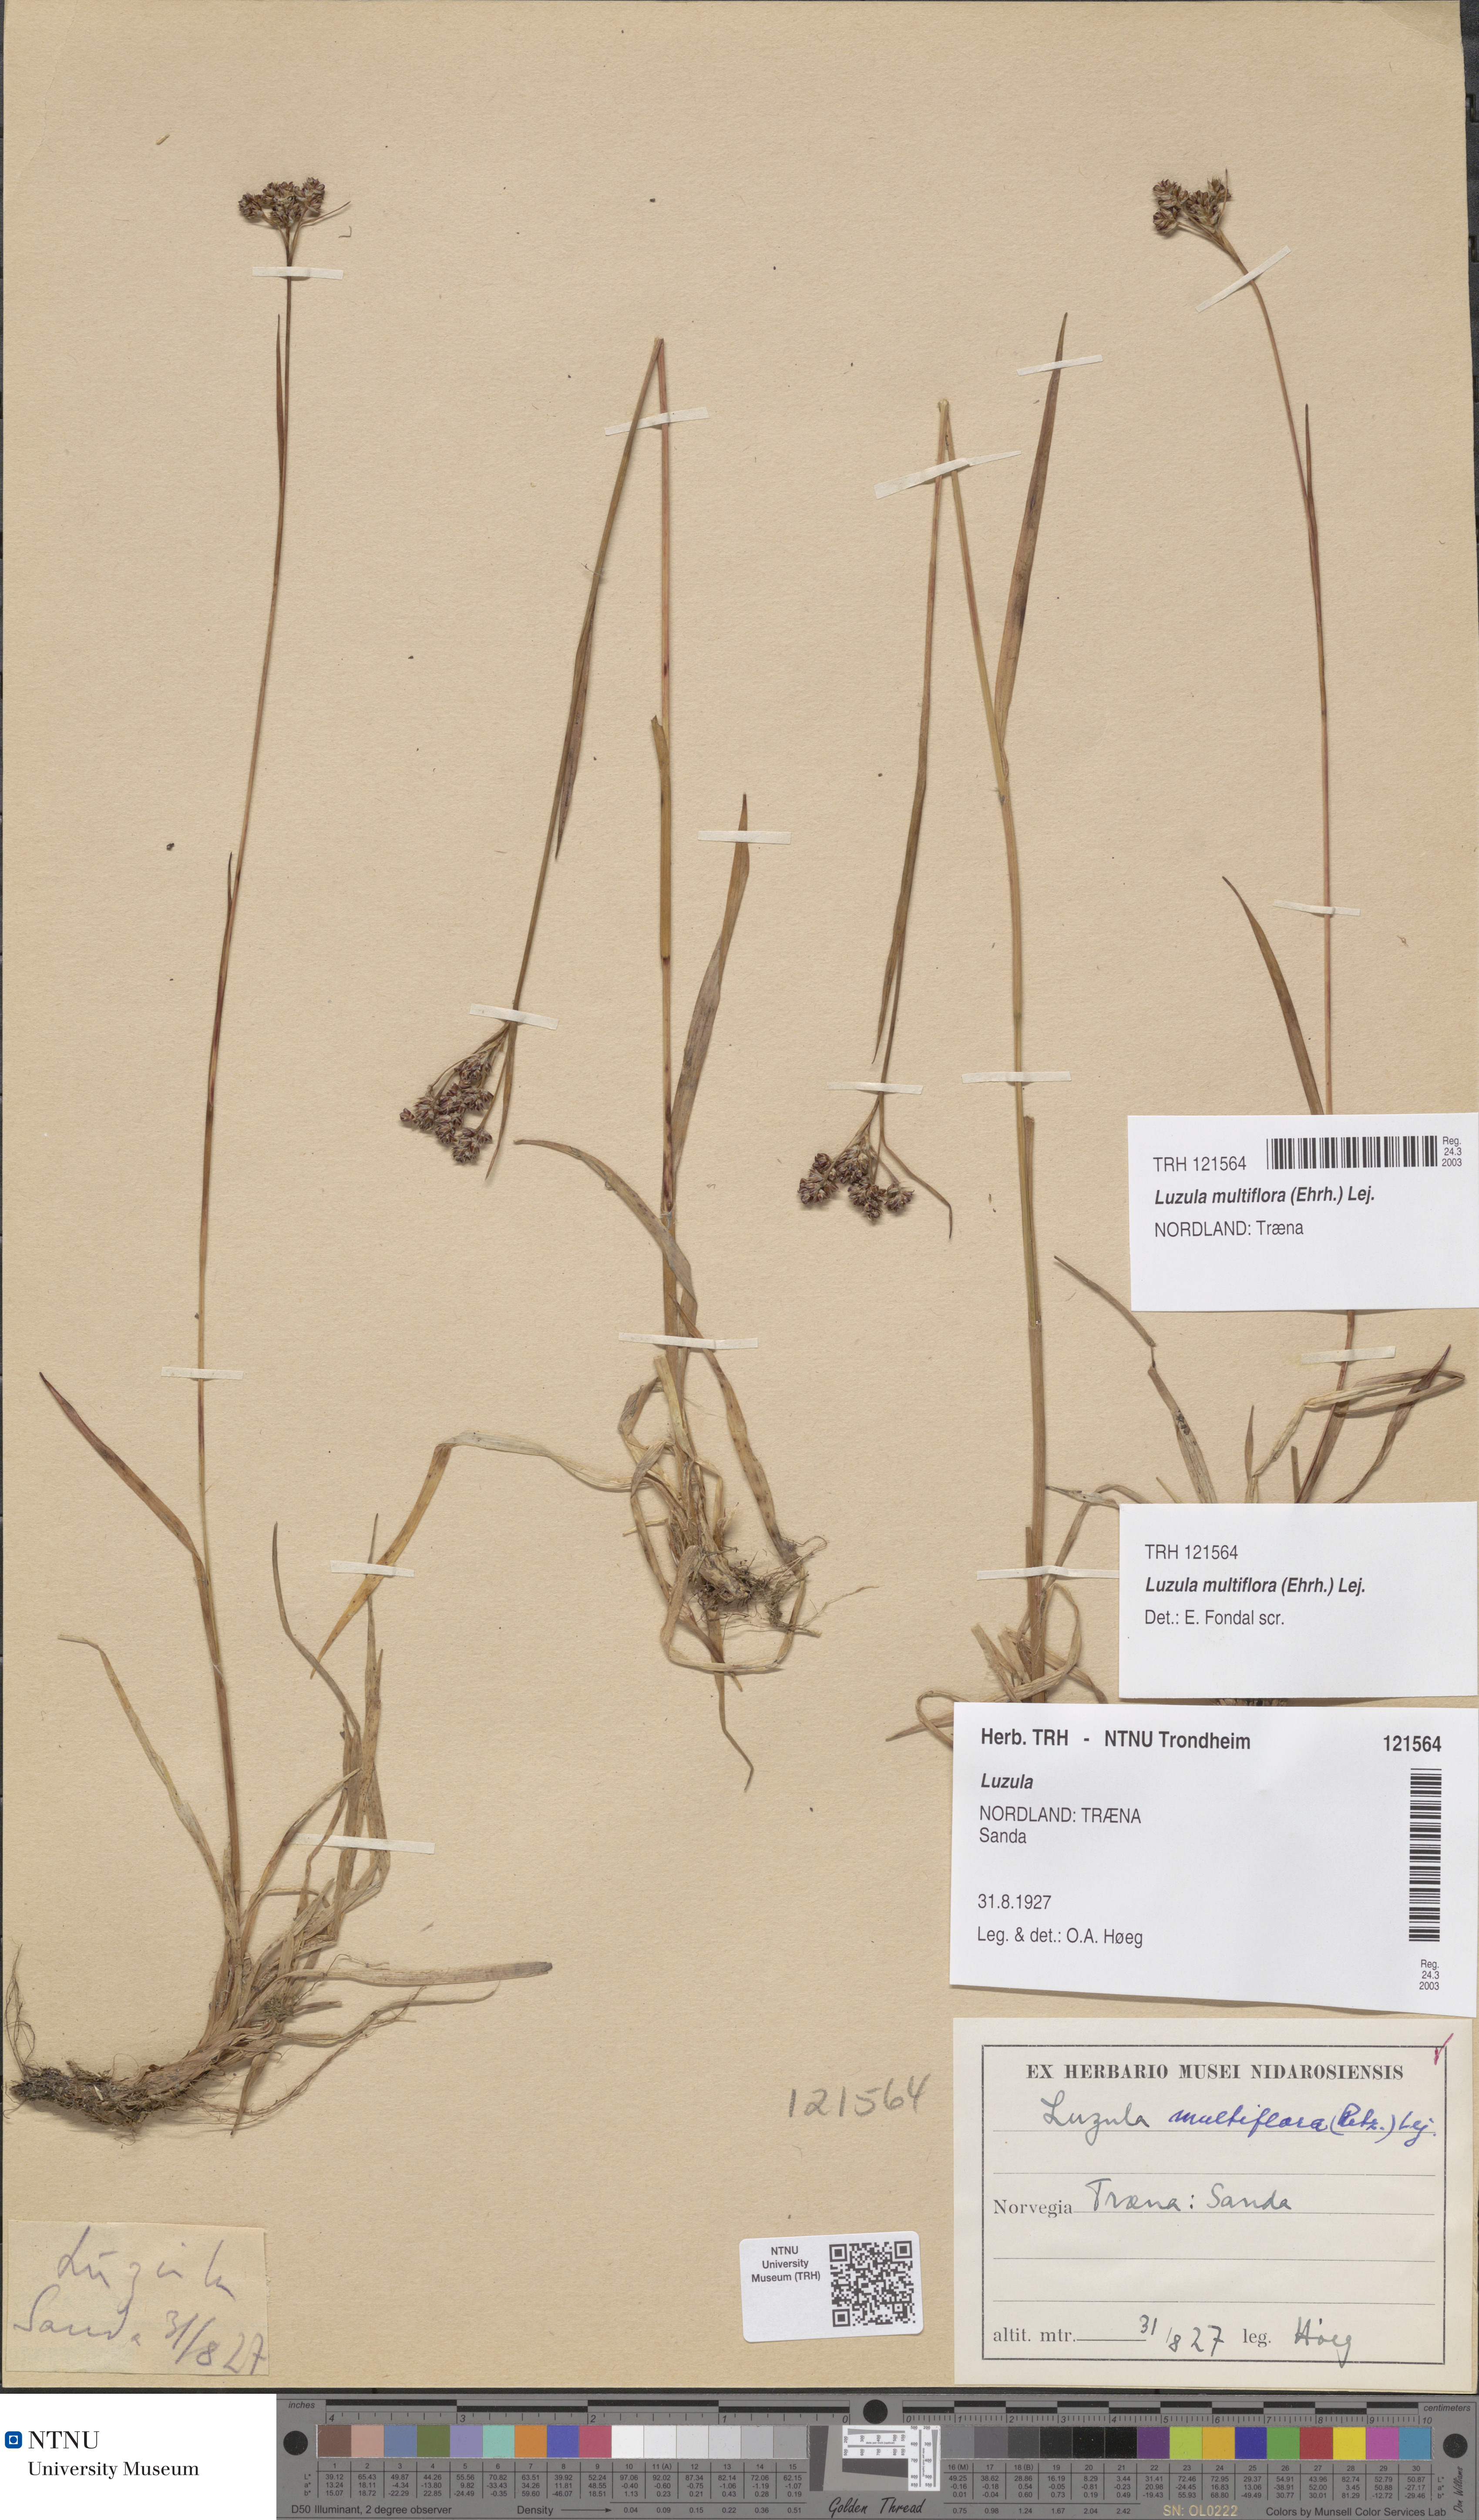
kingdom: Plantae
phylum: Tracheophyta
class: Liliopsida
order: Poales
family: Juncaceae
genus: Luzula
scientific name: Luzula multiflora
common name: Heath wood-rush
